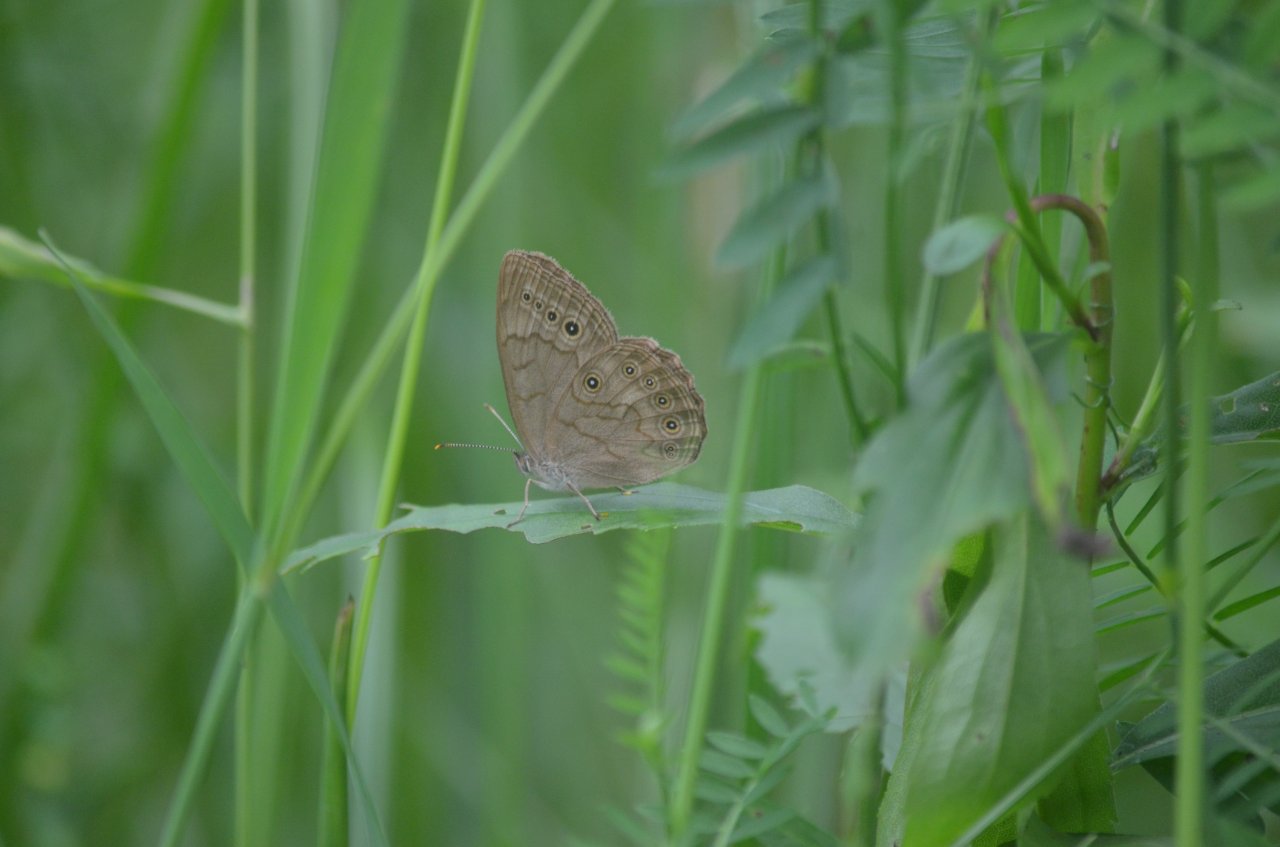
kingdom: Animalia
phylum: Arthropoda
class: Insecta
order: Lepidoptera
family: Nymphalidae
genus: Lethe
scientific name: Lethe eurydice
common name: Eyed Brown
